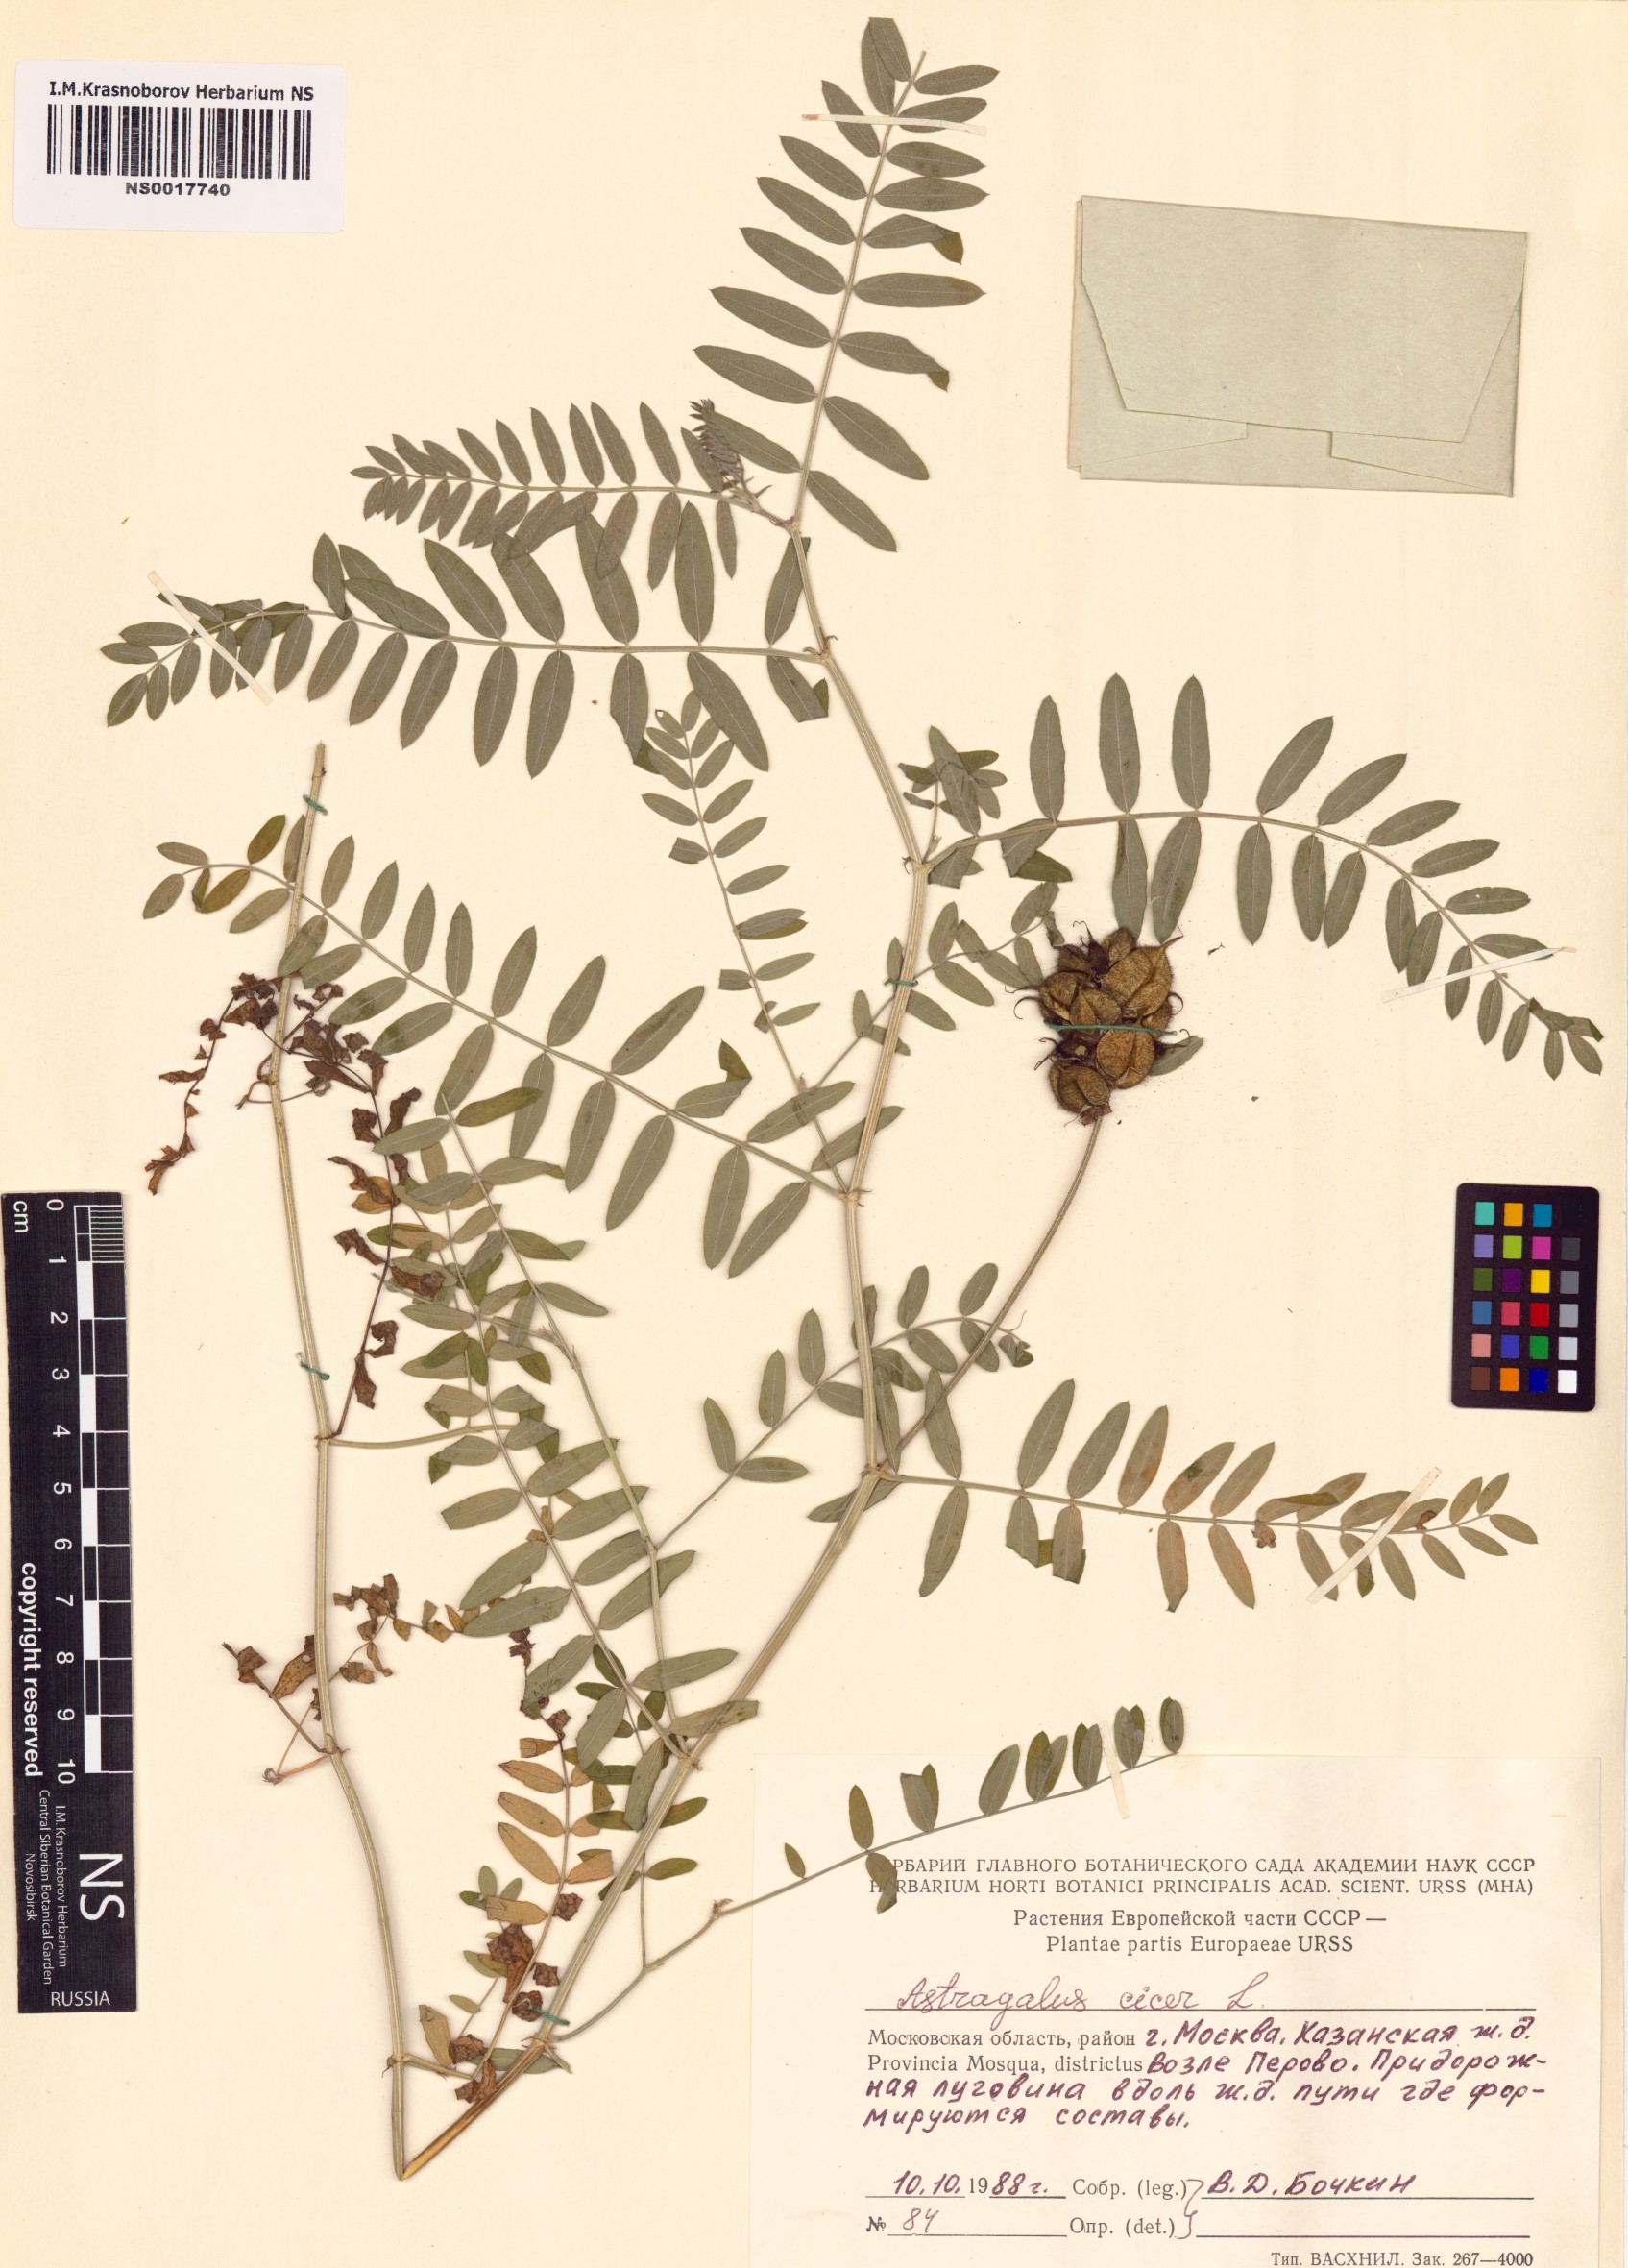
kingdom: Plantae
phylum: Tracheophyta
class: Magnoliopsida
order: Fabales
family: Fabaceae
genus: Astragalus
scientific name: Astragalus cicer
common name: Chick-pea milk-vetch
